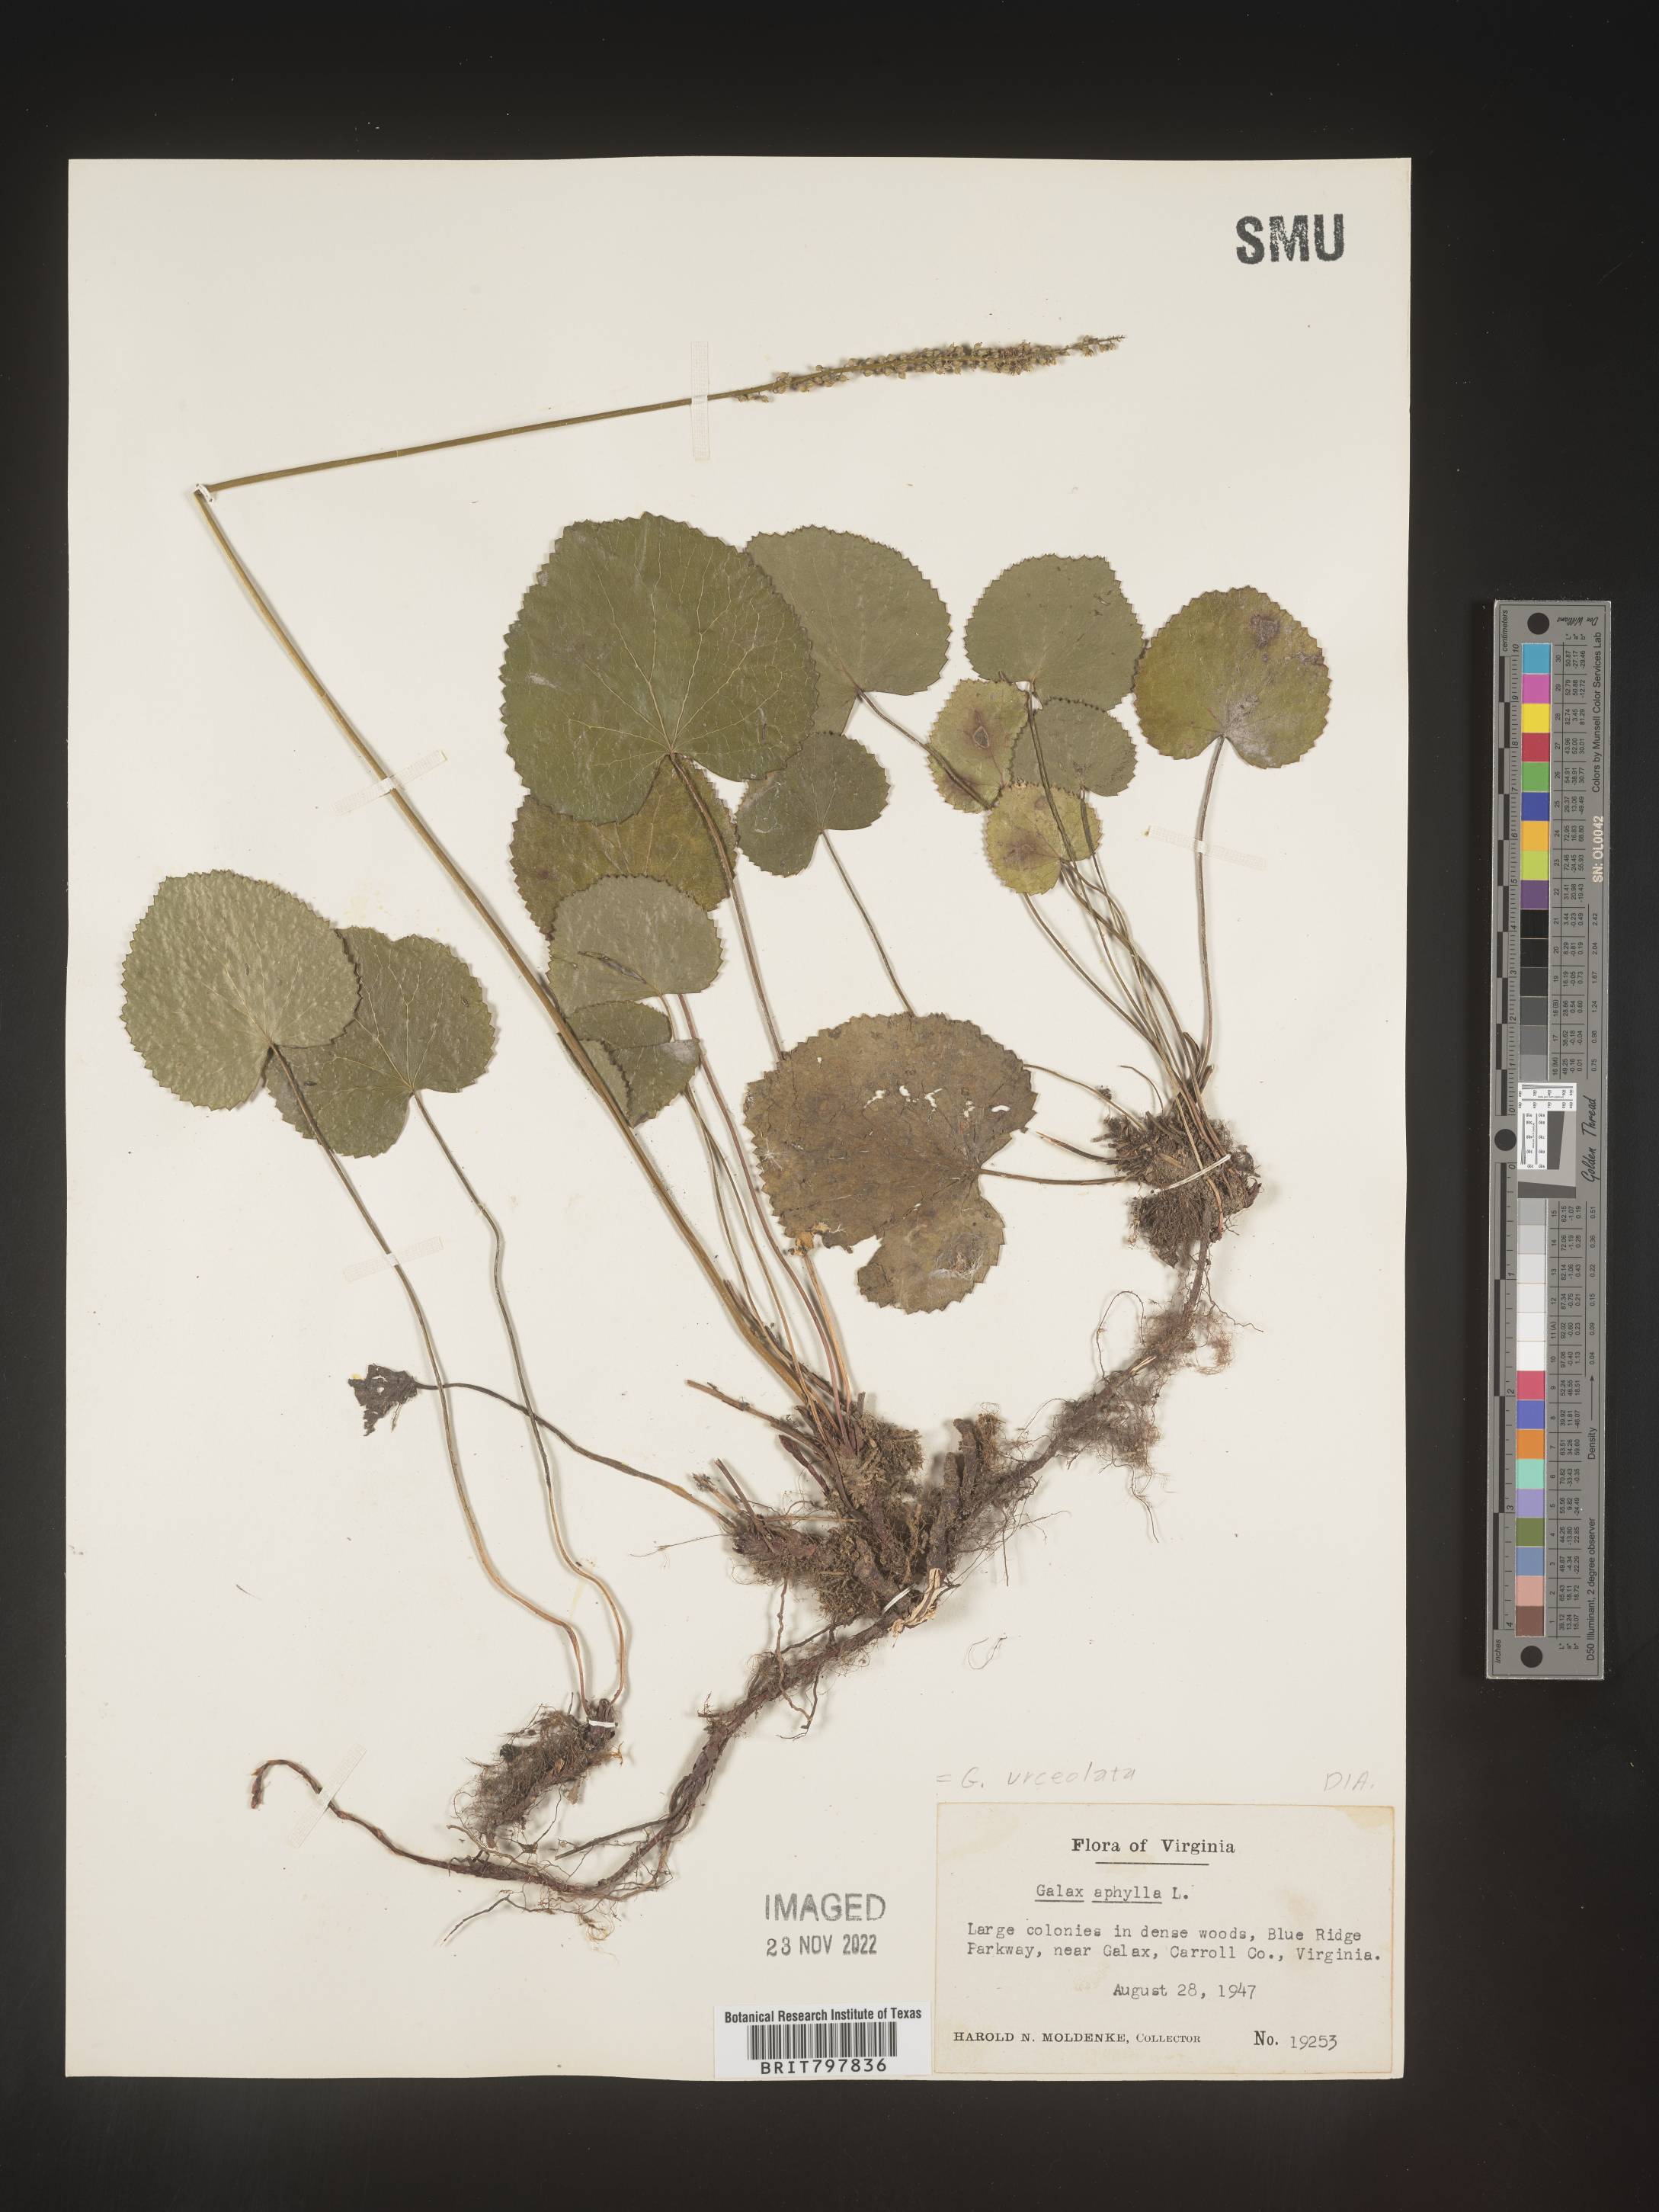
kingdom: Plantae
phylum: Tracheophyta
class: Magnoliopsida
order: Ericales
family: Diapensiaceae
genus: Galax
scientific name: Galax
